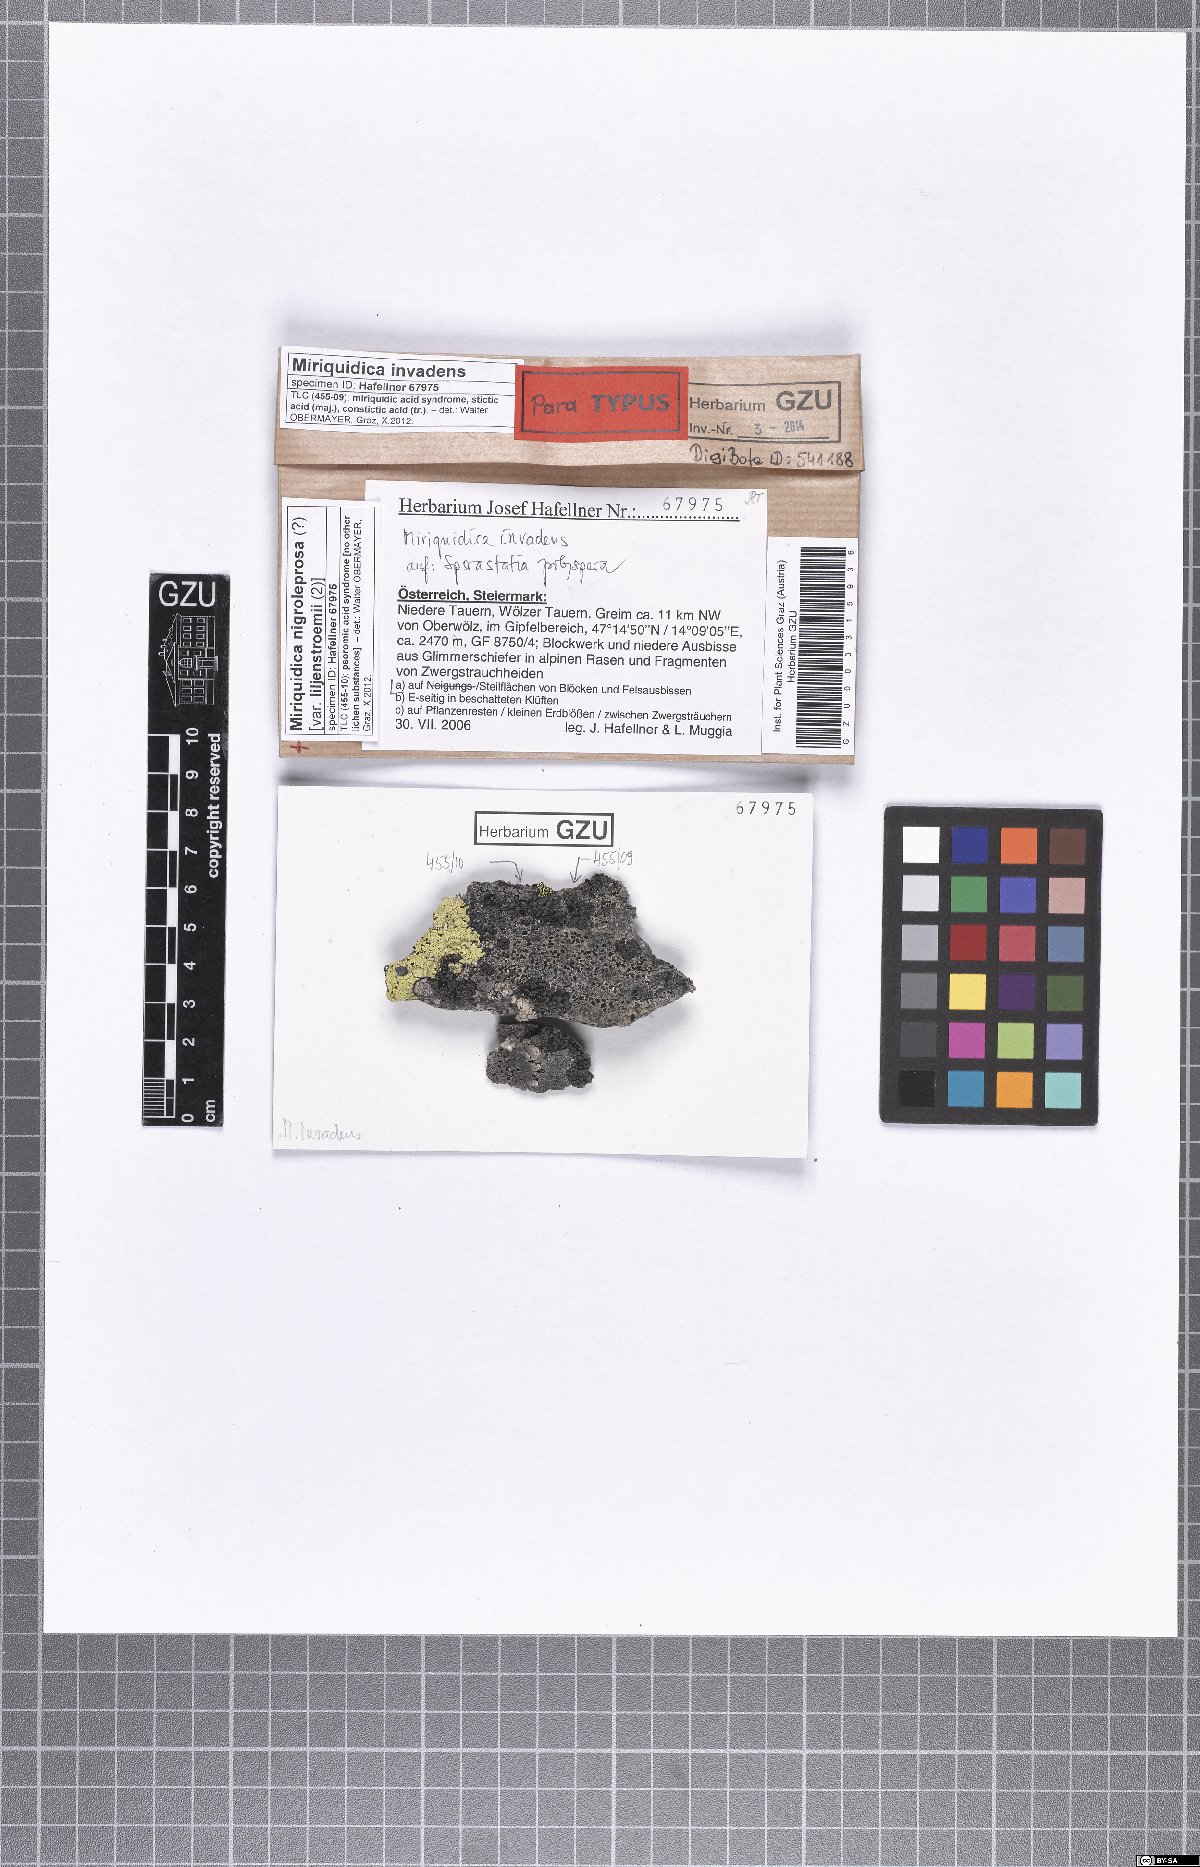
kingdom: Fungi
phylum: Ascomycota
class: Lecanoromycetes
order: Lecanorales
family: Lecanoraceae
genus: Miriquidica
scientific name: Miriquidica invadens
